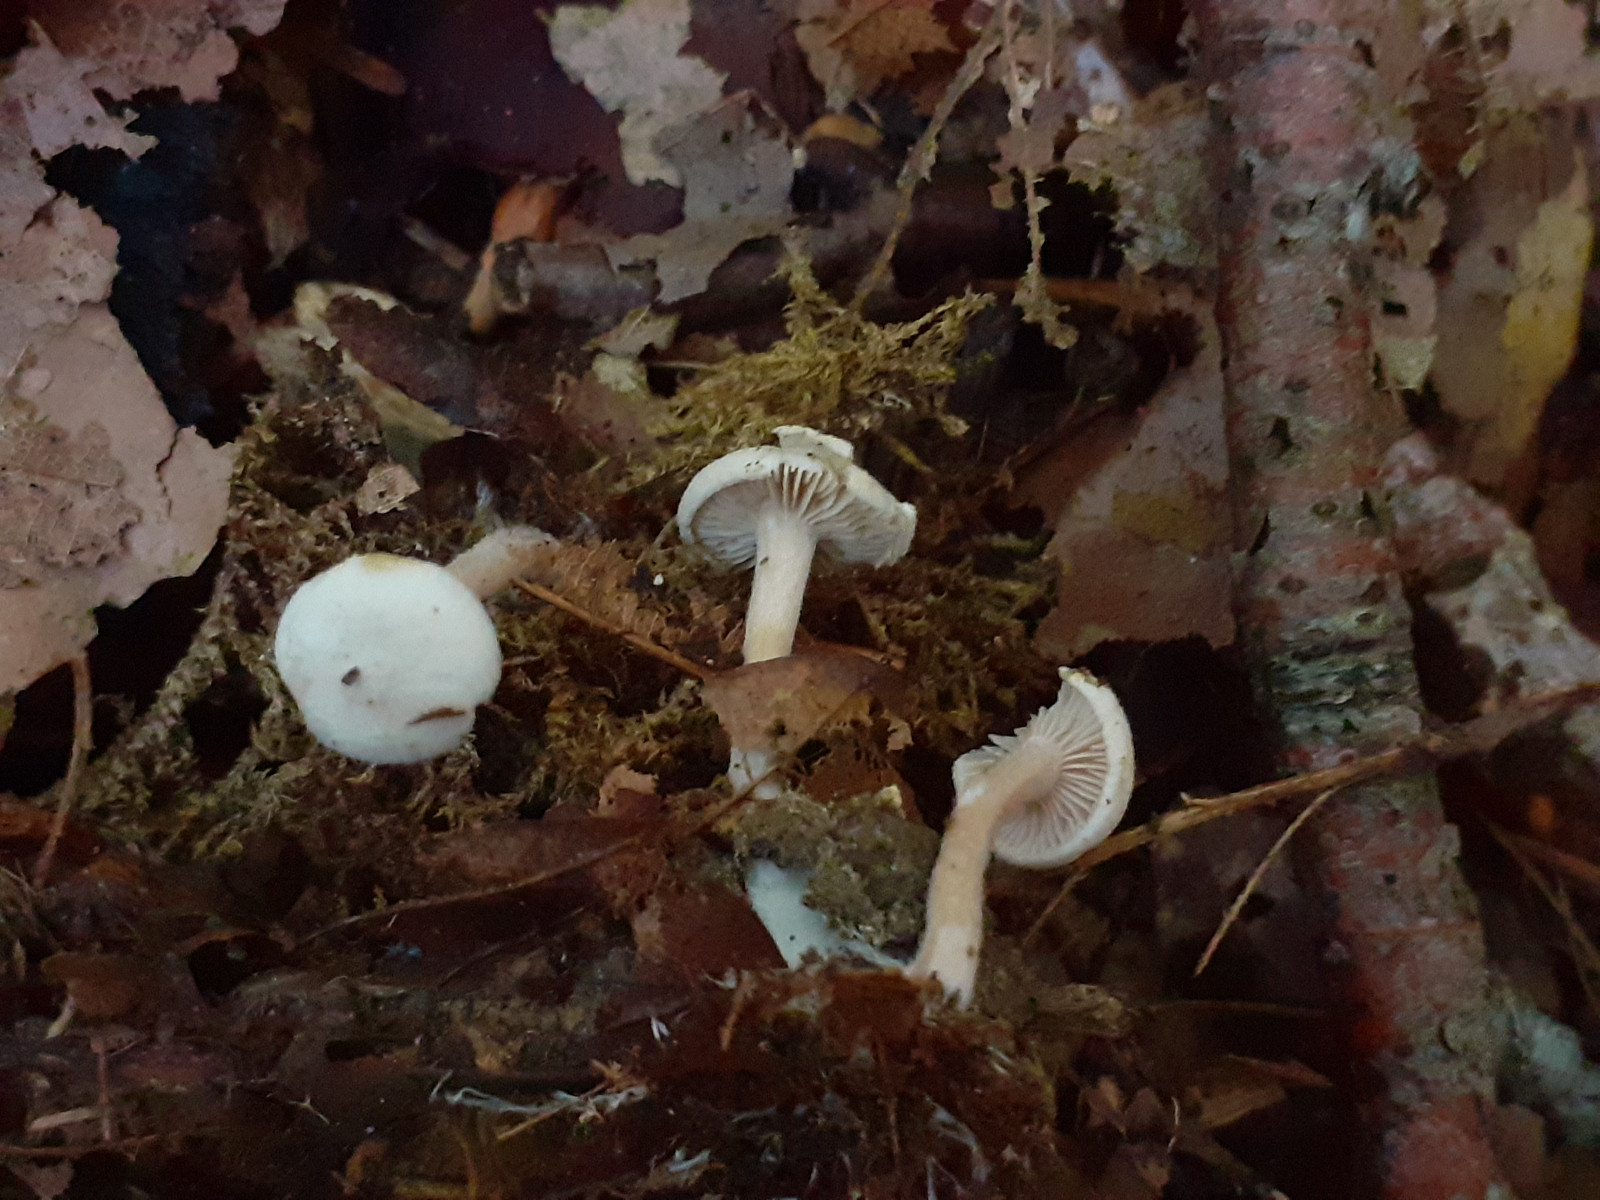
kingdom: Fungi
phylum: Basidiomycota
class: Agaricomycetes
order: Agaricales
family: Tricholomataceae
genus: Ripartites
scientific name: Ripartites tricholoma
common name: almindelig skæghat
